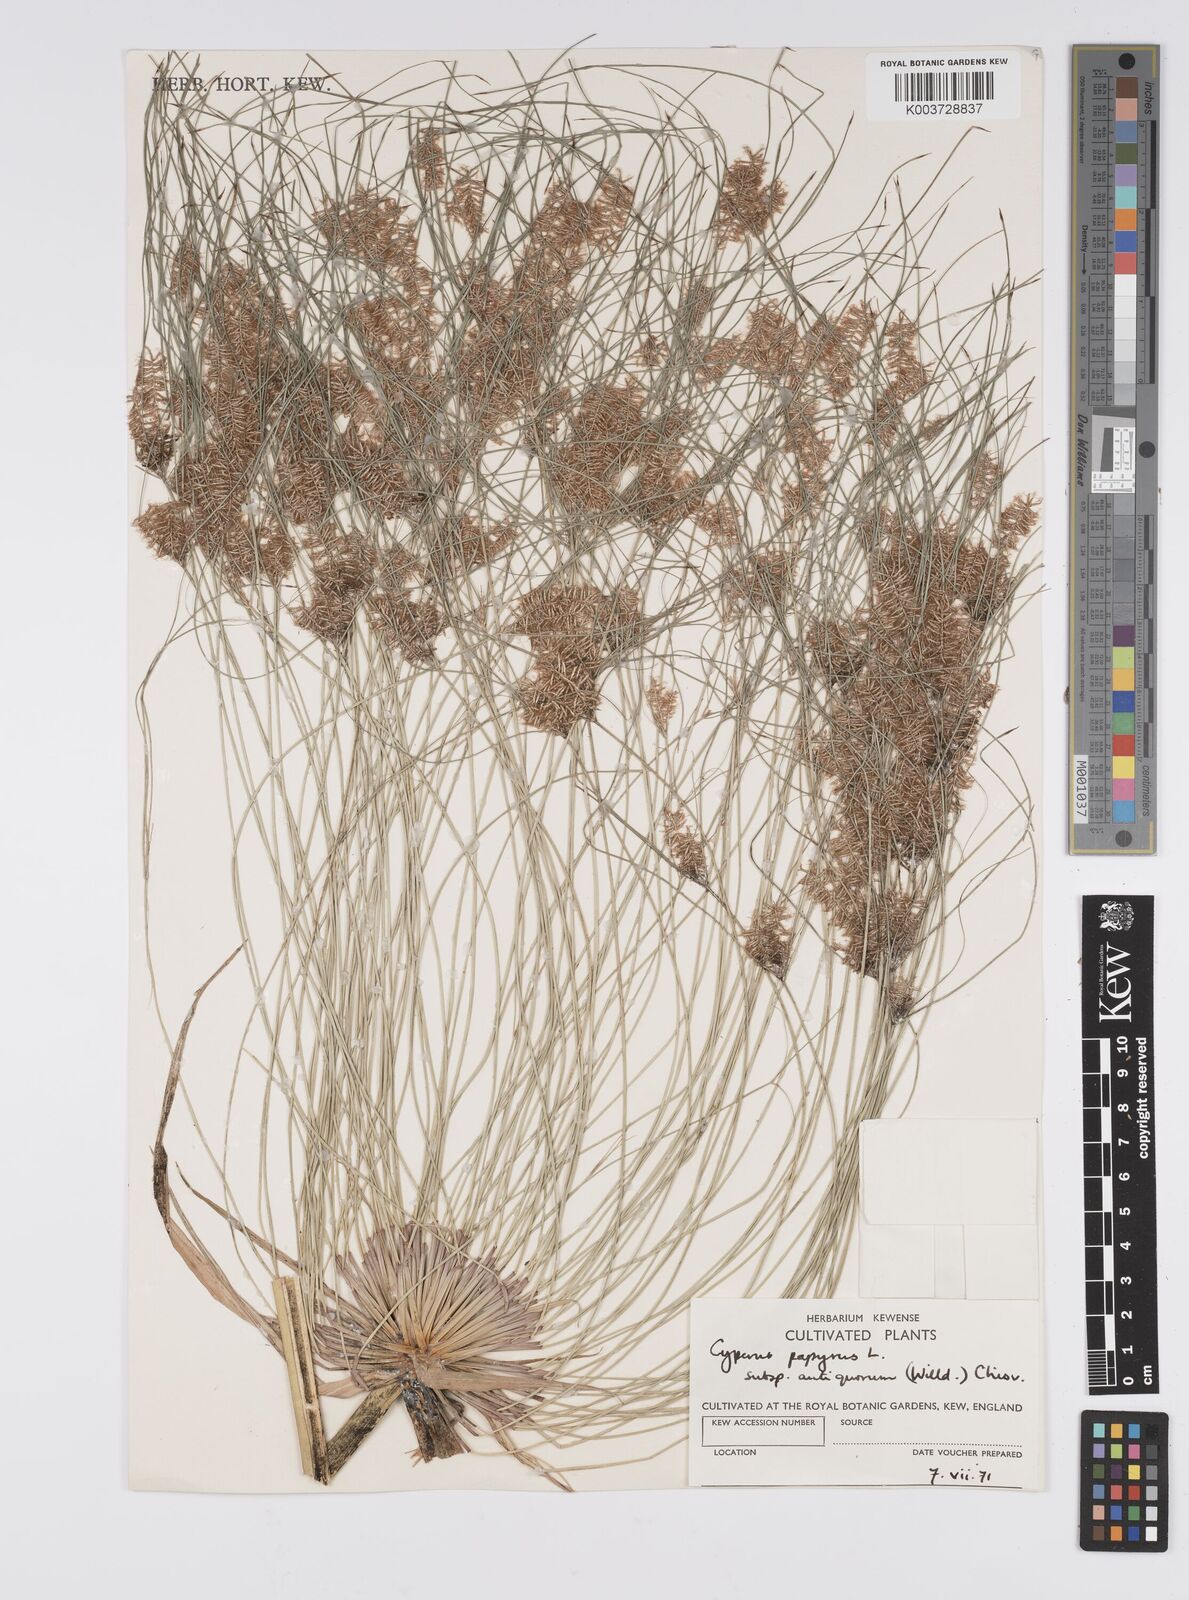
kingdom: Plantae
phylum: Tracheophyta
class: Liliopsida
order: Poales
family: Cyperaceae
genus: Cyperus
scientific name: Cyperus papyrus
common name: Papyrus
